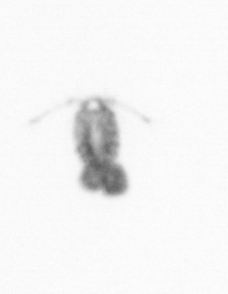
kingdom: Animalia
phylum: Arthropoda
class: Copepoda
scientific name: Copepoda
